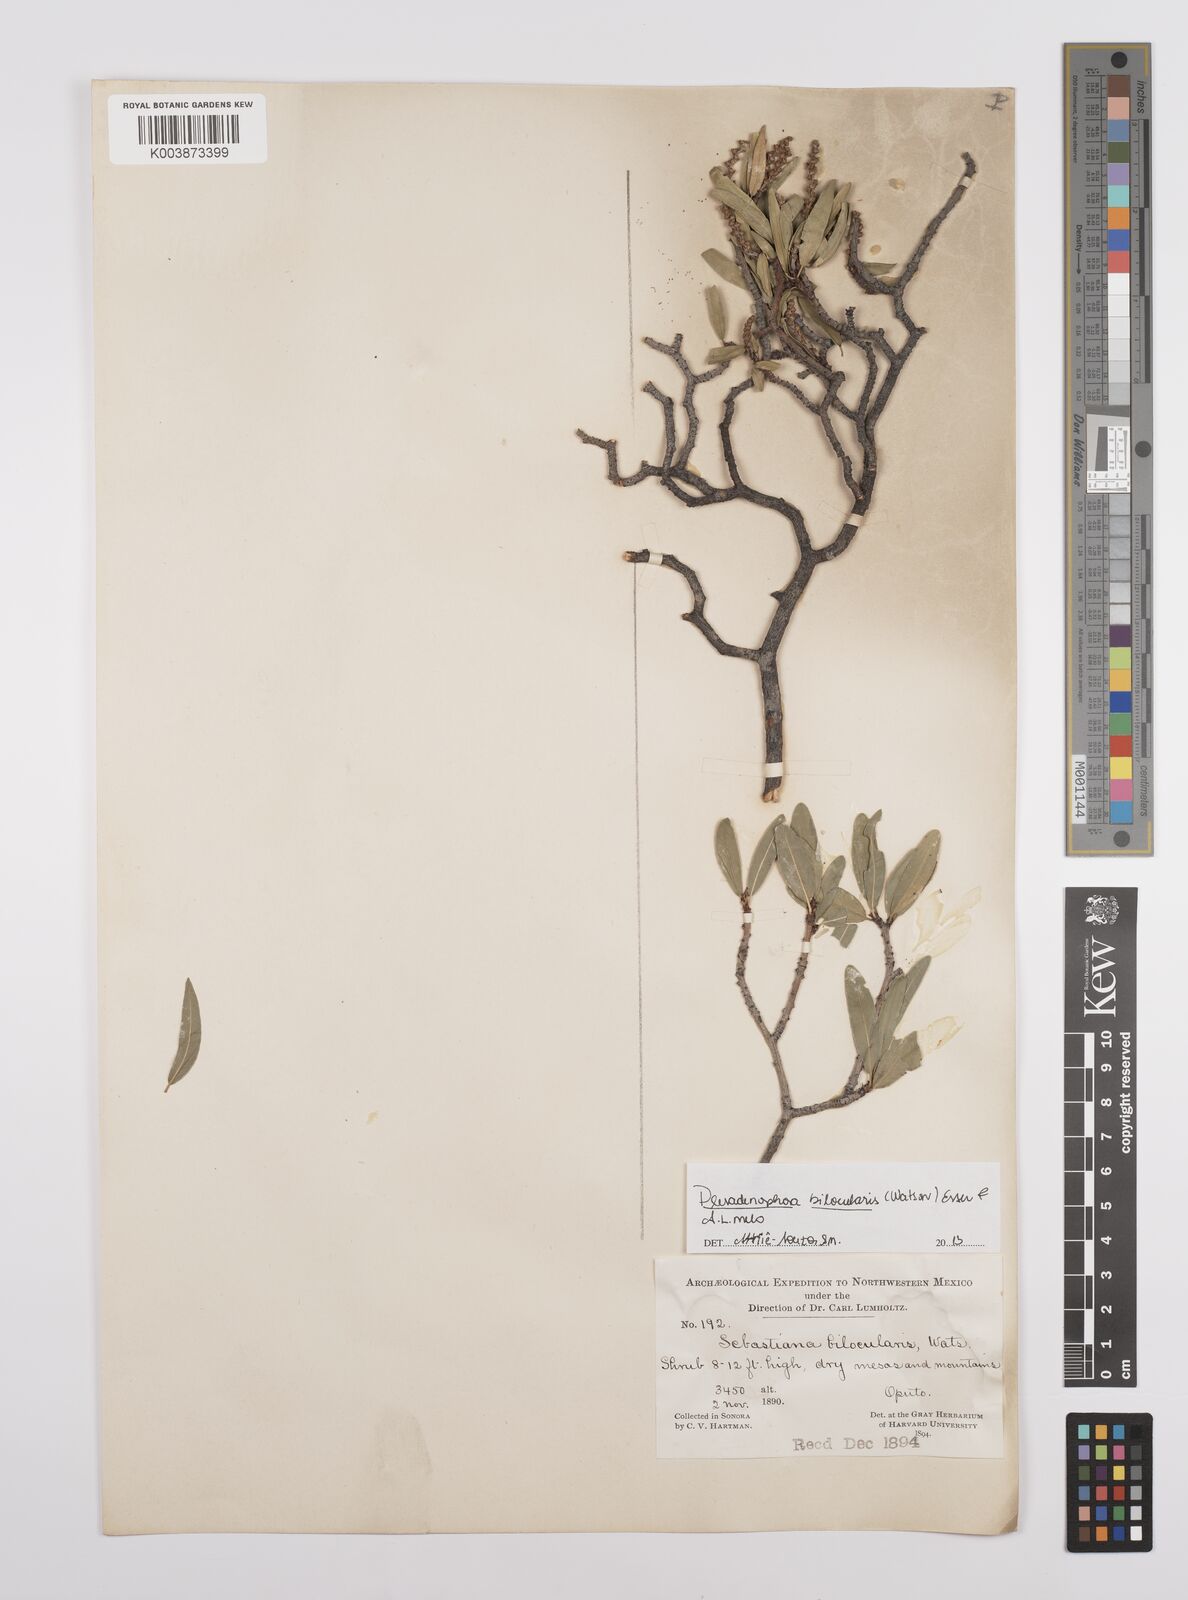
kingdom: Plantae
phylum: Tracheophyta
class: Magnoliopsida
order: Malpighiales
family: Euphorbiaceae
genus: Pleradenophora
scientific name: Pleradenophora bilocularis
